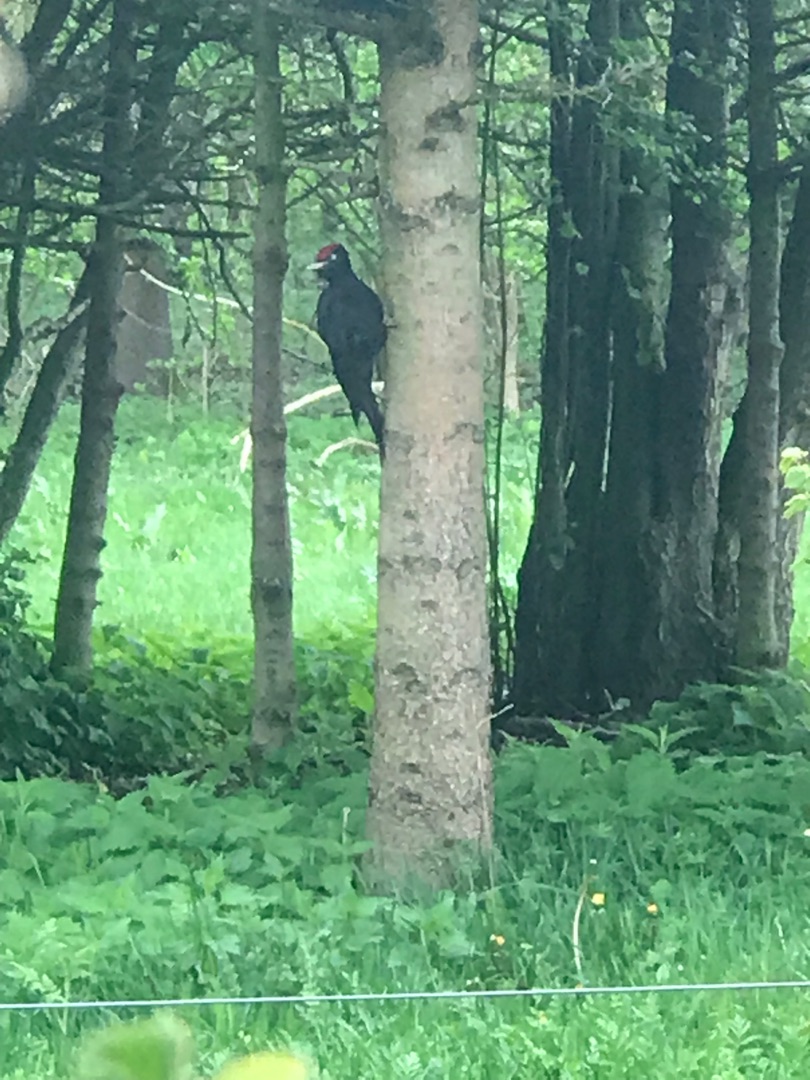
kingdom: Animalia
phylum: Chordata
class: Aves
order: Piciformes
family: Picidae
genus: Dryocopus
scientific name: Dryocopus martius
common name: Sortspætte
